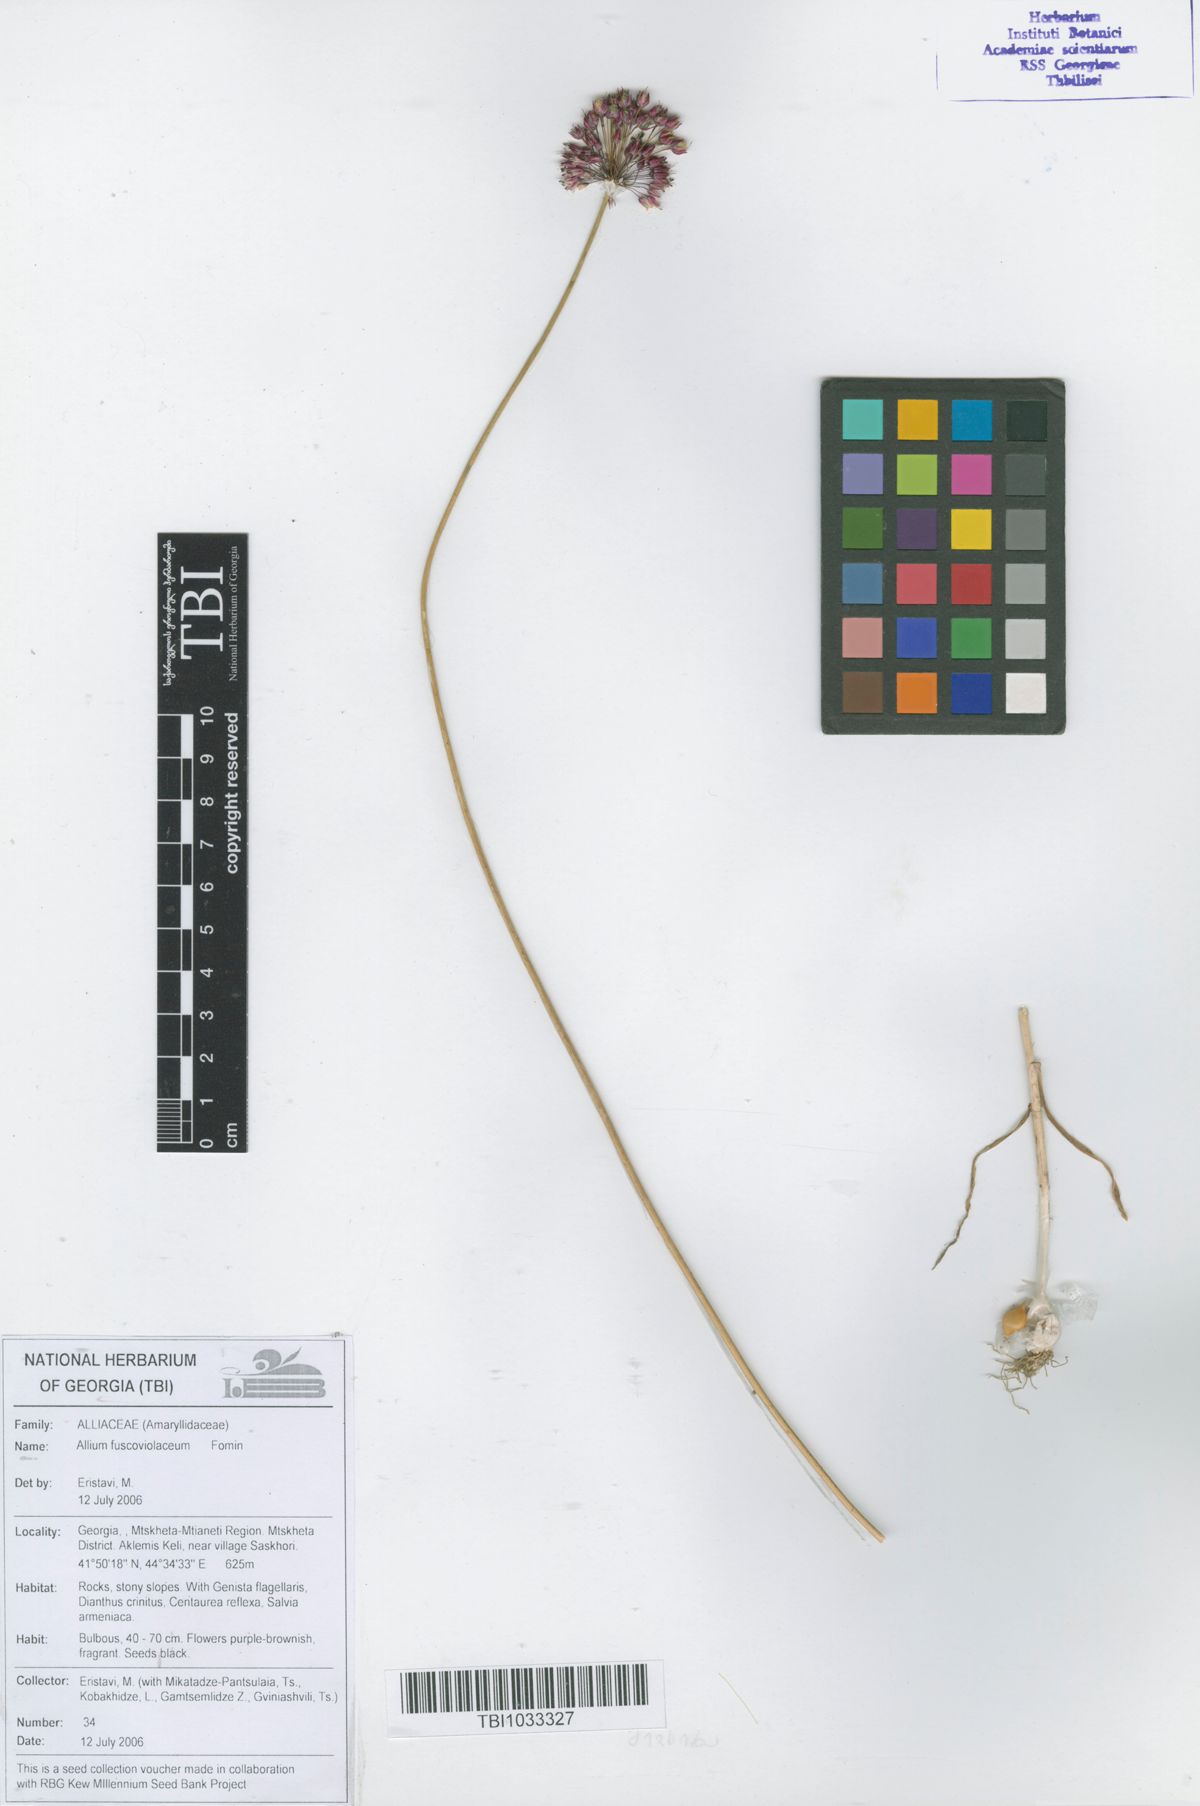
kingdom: Plantae
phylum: Tracheophyta
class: Liliopsida
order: Asparagales
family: Amaryllidaceae
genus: Allium
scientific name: Allium fuscoviolaceum
